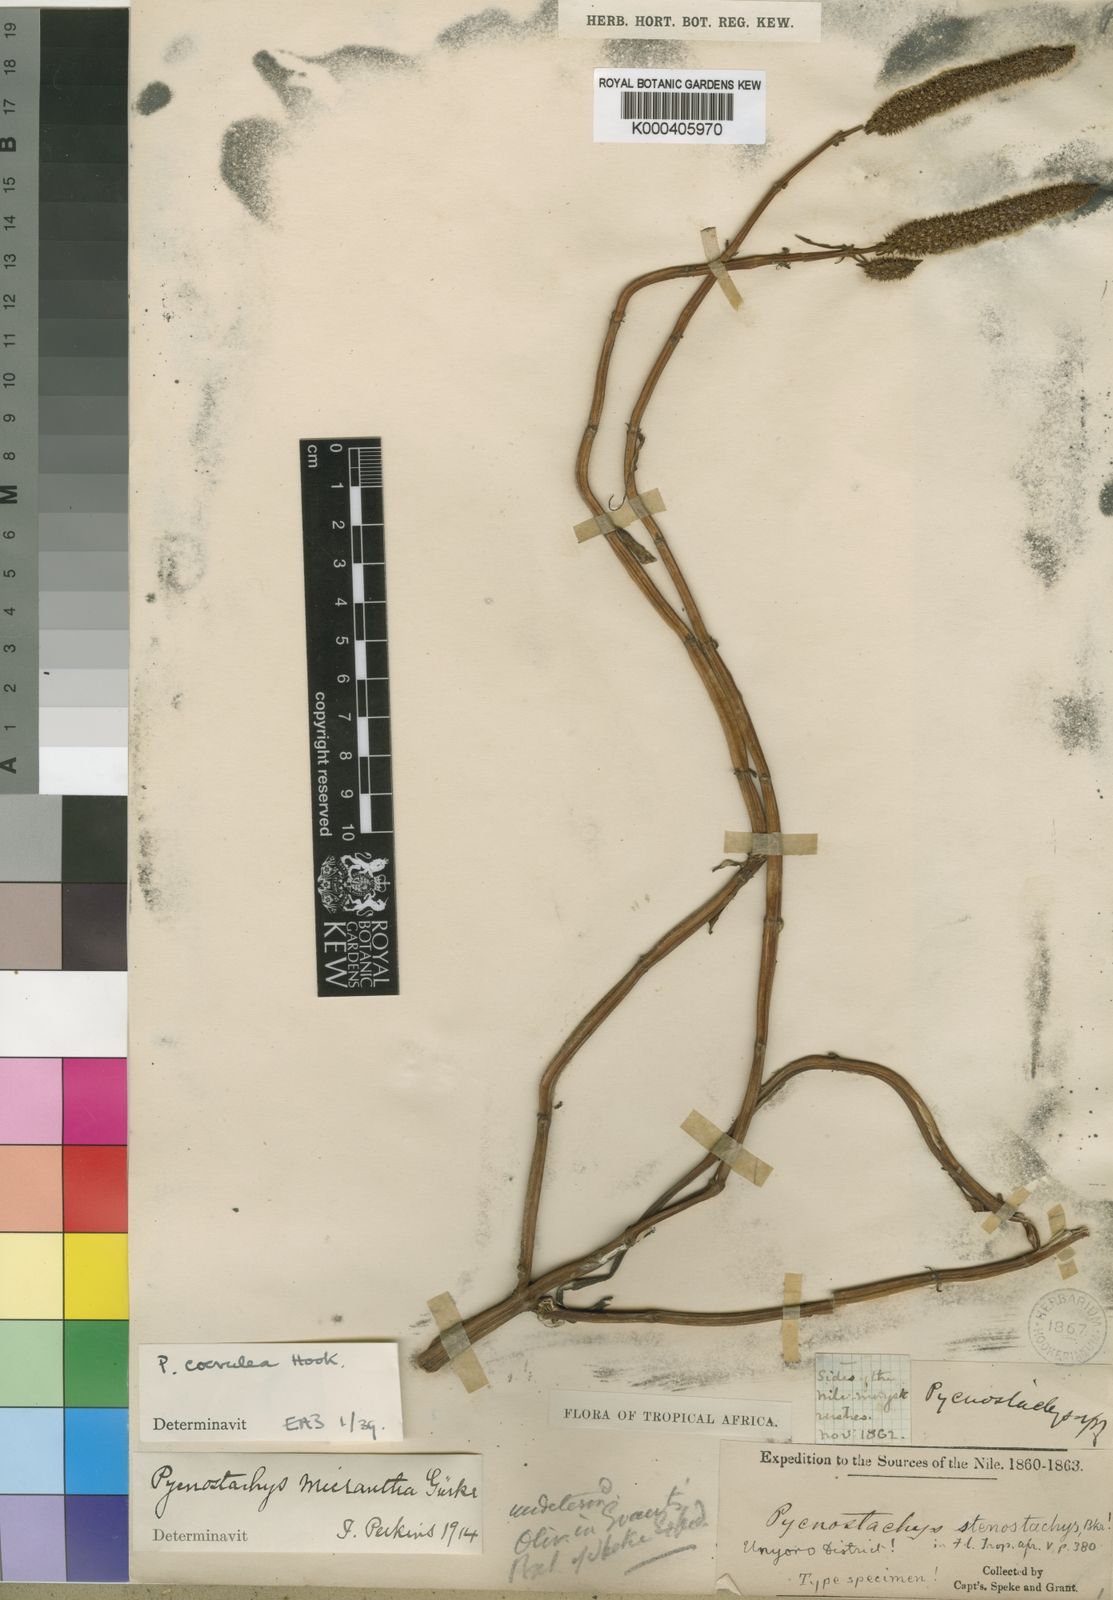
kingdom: Plantae
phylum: Tracheophyta
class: Magnoliopsida
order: Lamiales
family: Lamiaceae
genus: Coleus
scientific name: Coleus stenostachys
